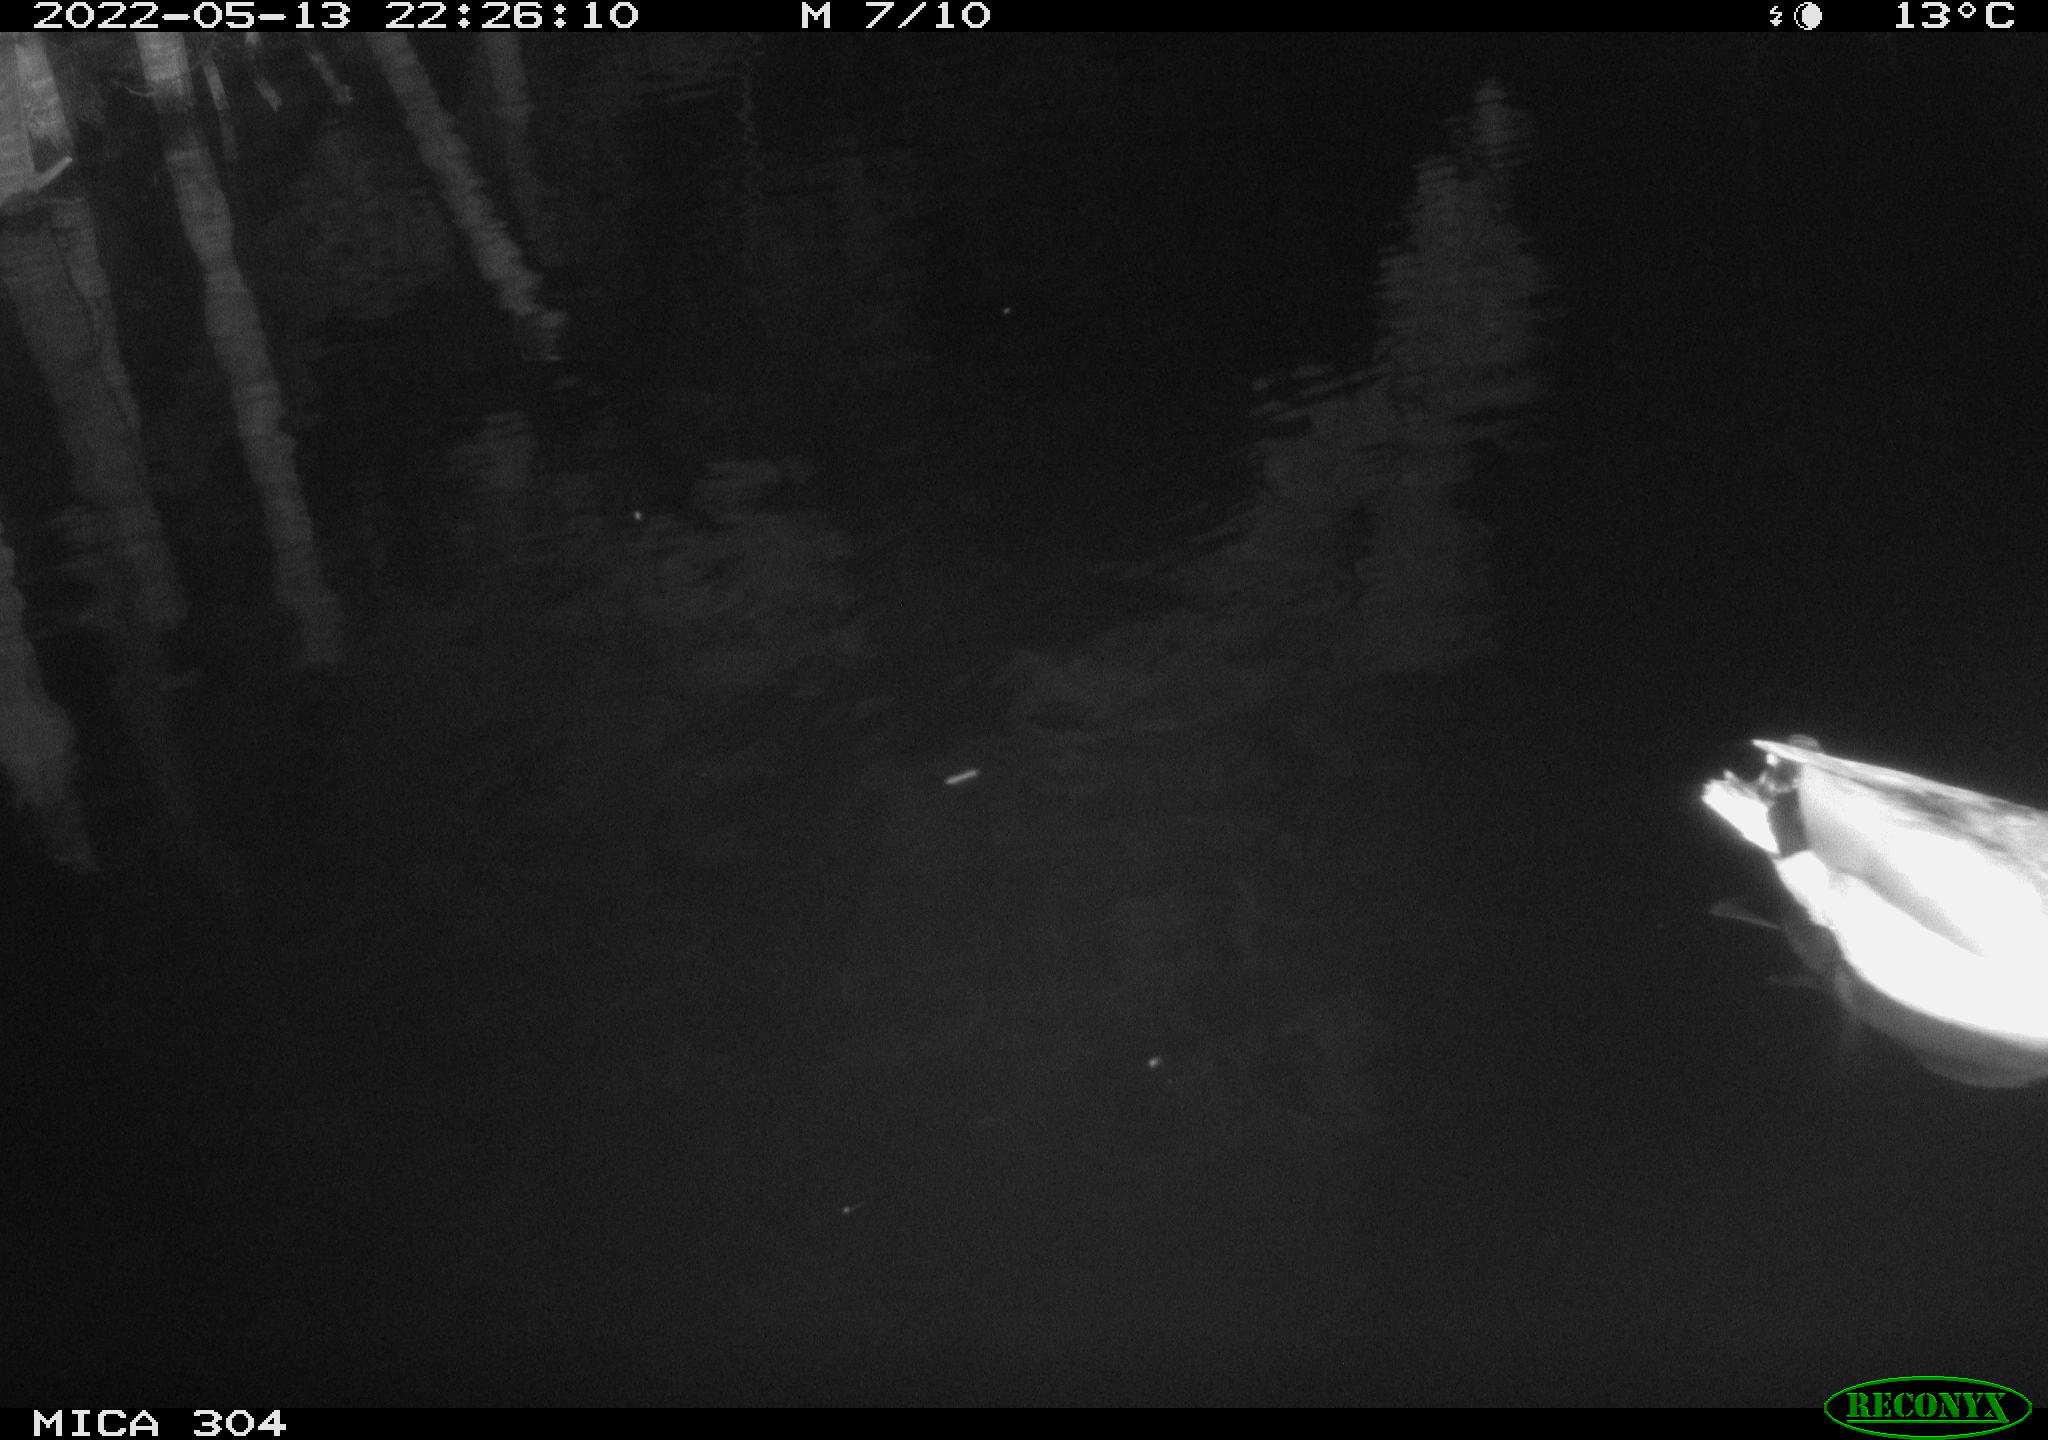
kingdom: Animalia
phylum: Chordata
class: Aves
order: Anseriformes
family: Anatidae
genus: Anas
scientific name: Anas platyrhynchos
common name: Mallard
